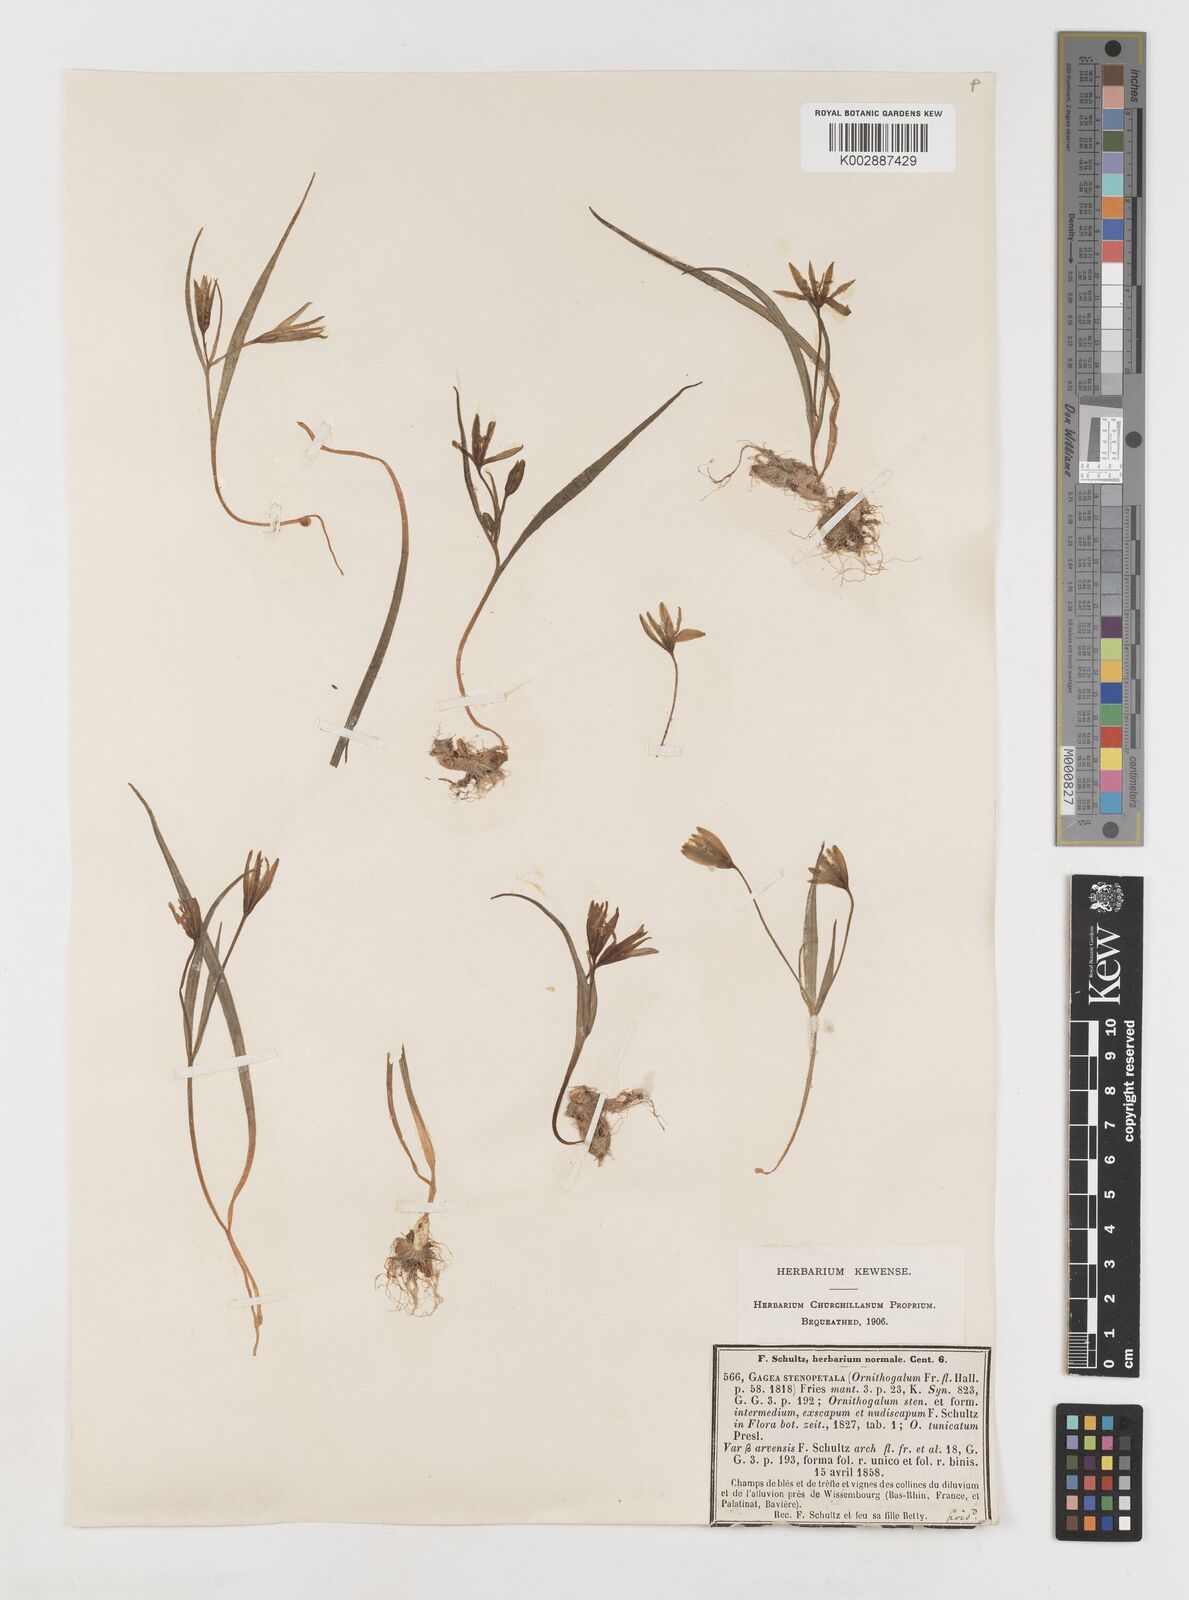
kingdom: Plantae
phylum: Tracheophyta
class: Liliopsida
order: Liliales
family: Liliaceae
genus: Gagea
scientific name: Gagea pratensis
